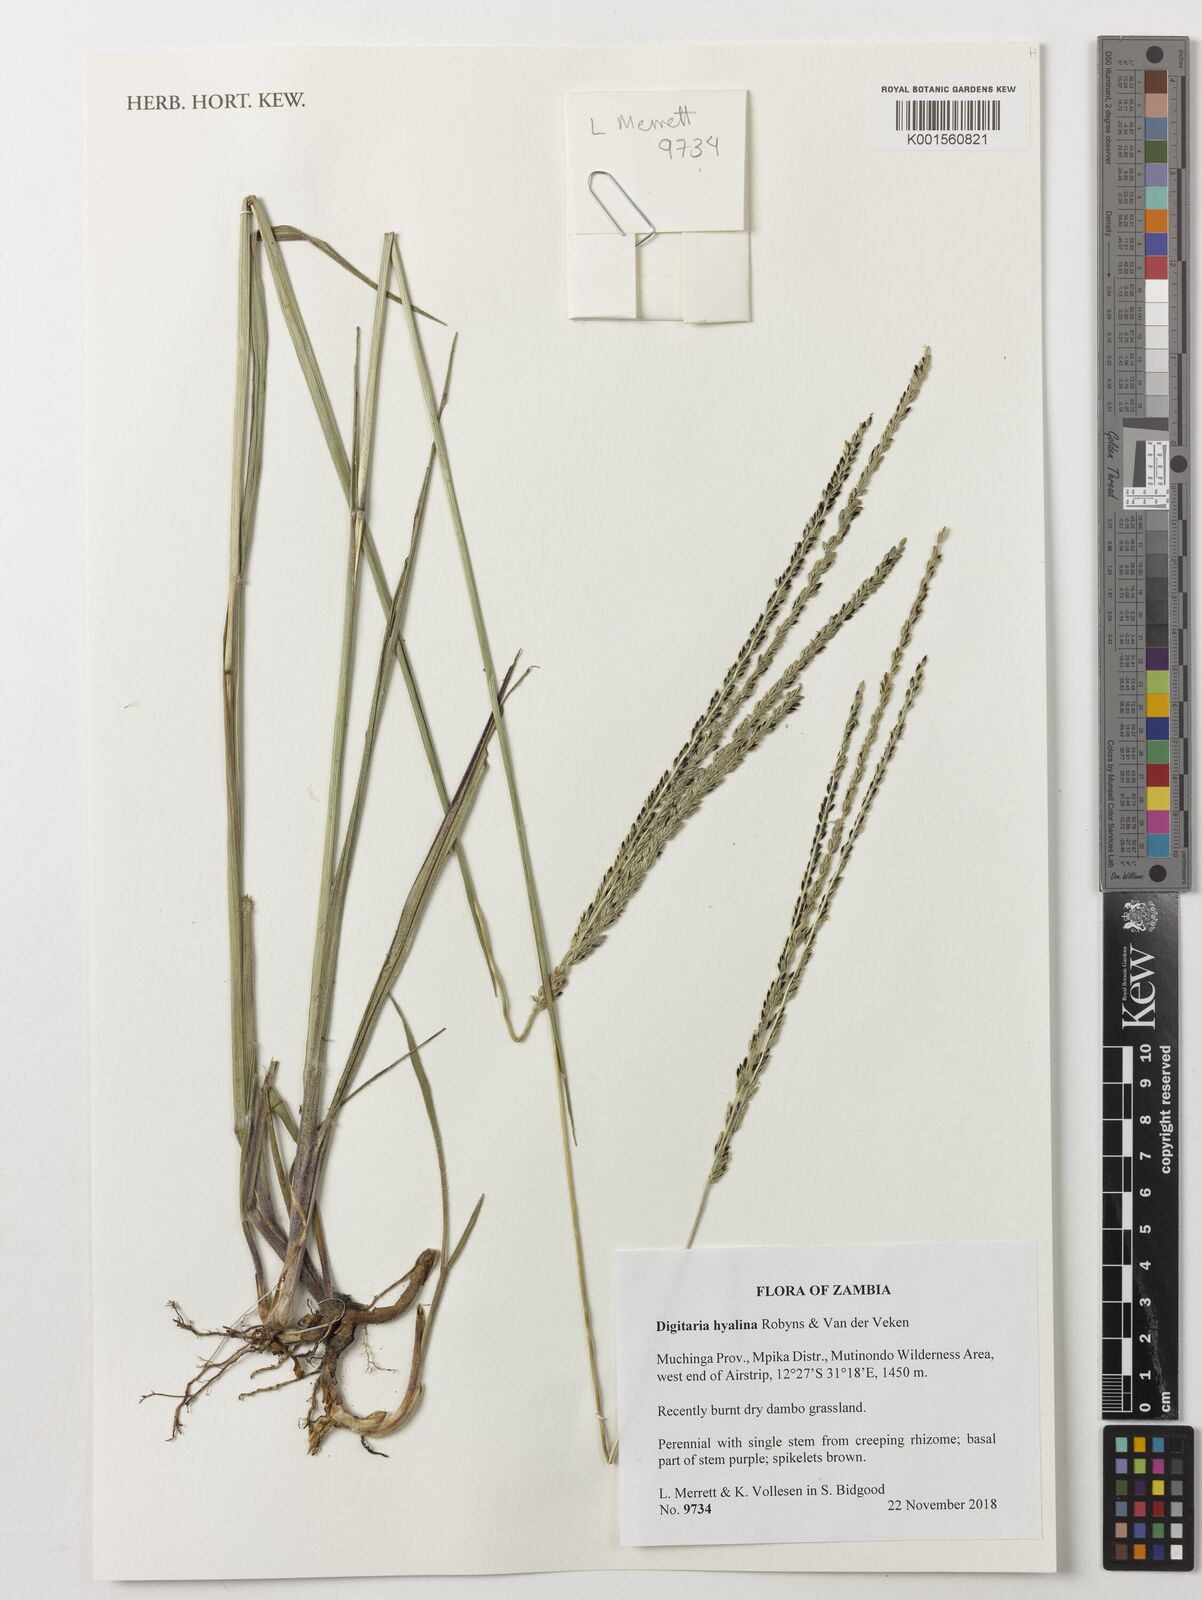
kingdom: Plantae
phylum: Tracheophyta
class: Liliopsida
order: Poales
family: Poaceae
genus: Digitaria
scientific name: Digitaria hyalina
